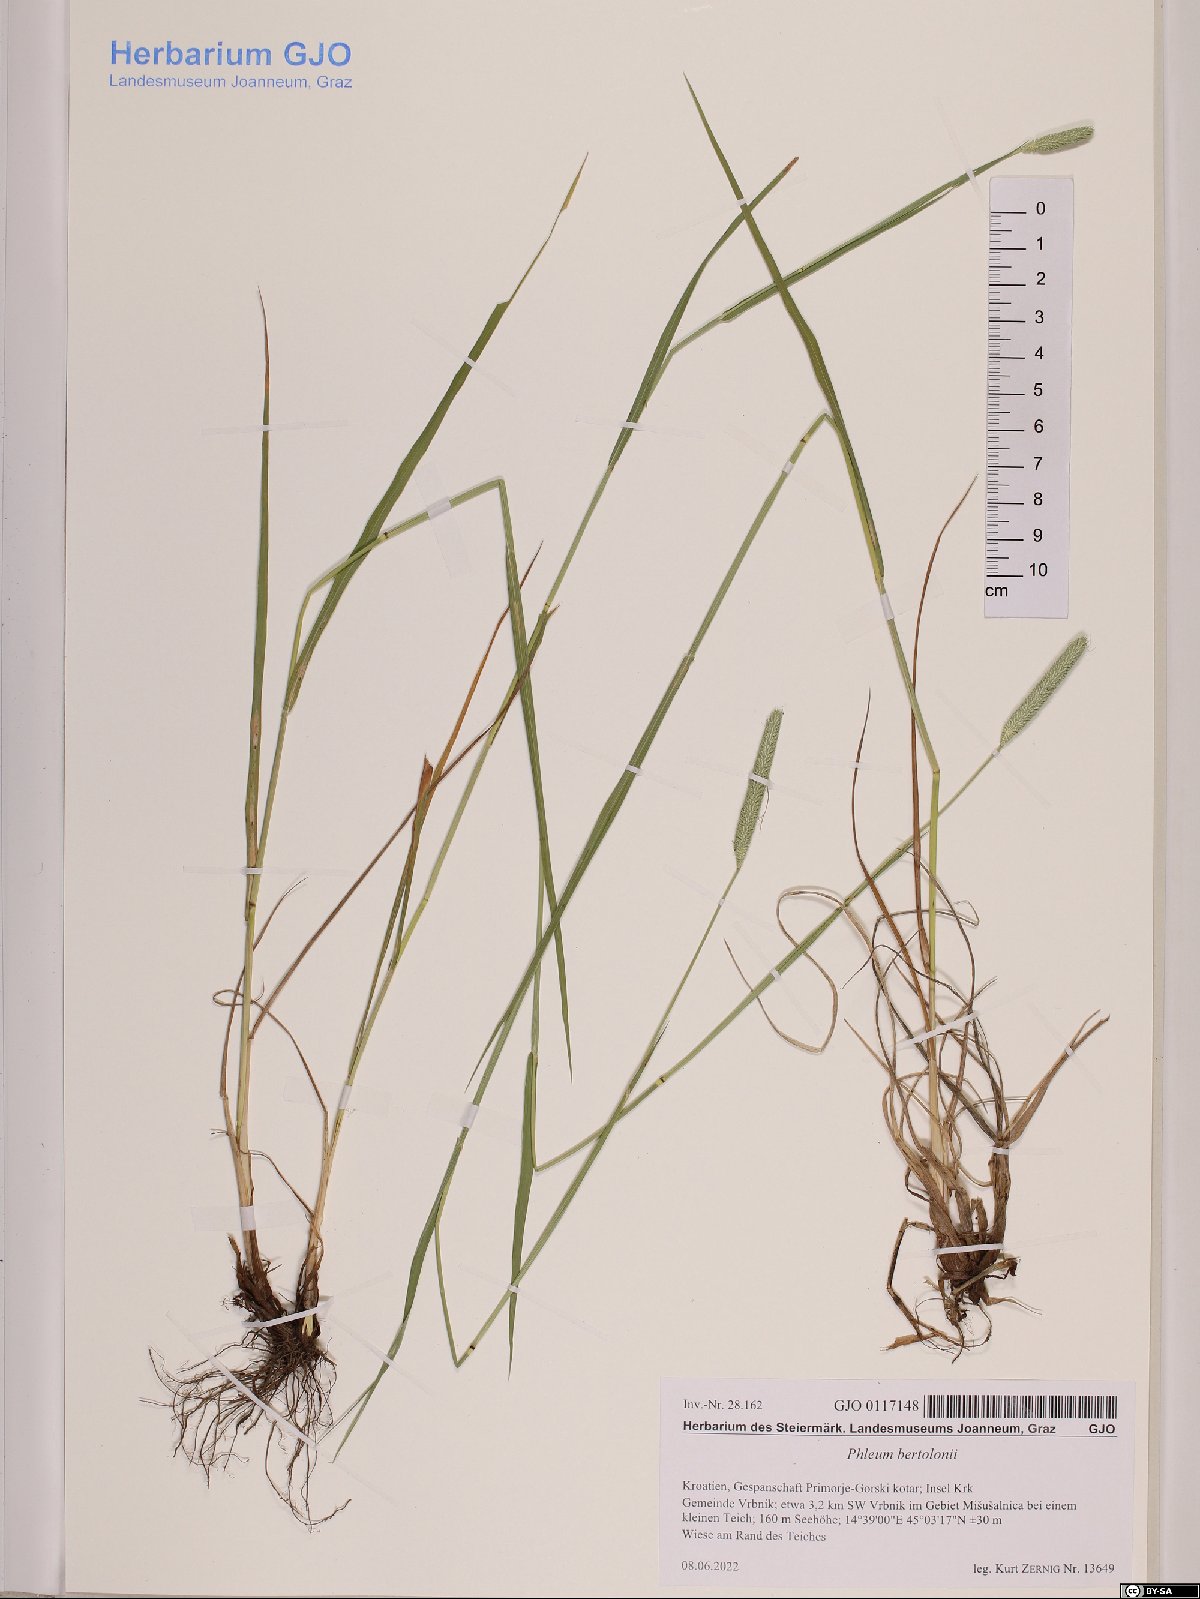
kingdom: Plantae
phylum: Tracheophyta
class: Liliopsida
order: Poales
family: Poaceae
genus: Phleum
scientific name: Phleum bertolonii
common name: Smaller cat's-tail
